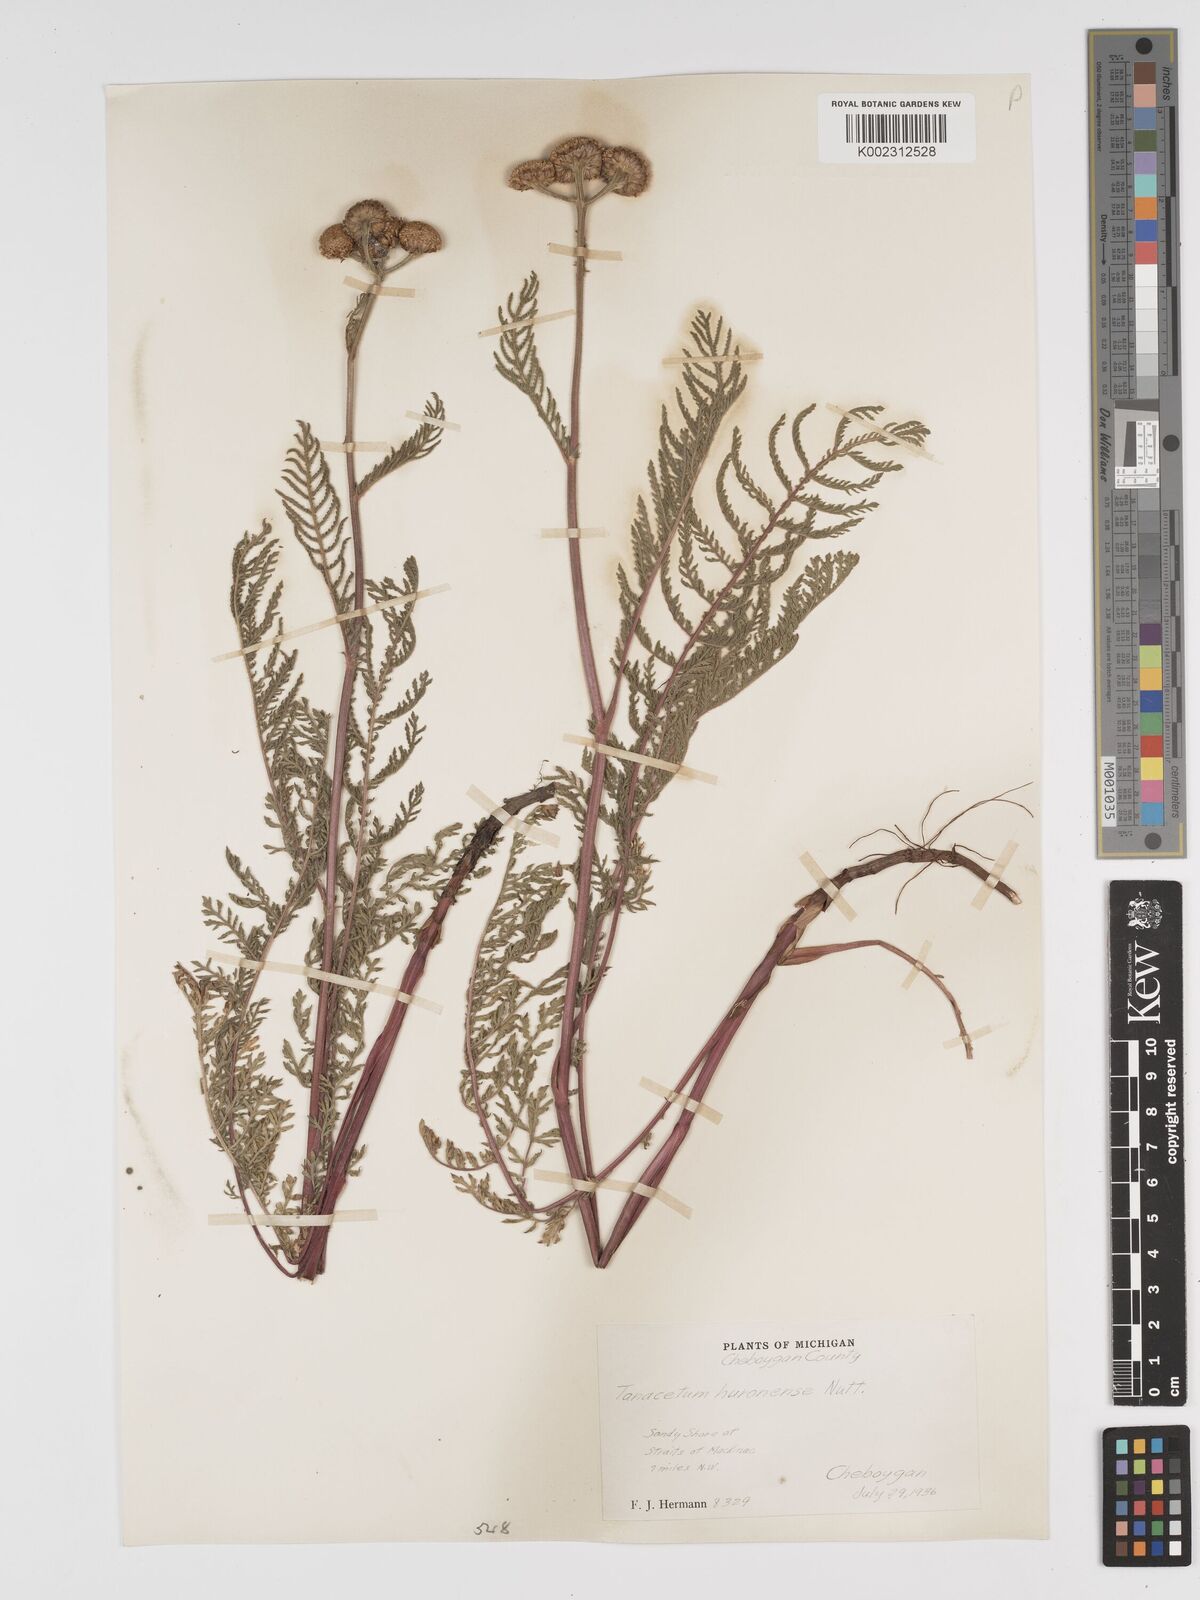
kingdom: Plantae
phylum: Tracheophyta
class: Magnoliopsida
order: Asterales
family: Asteraceae
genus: Tanacetum
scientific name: Tanacetum bipinnatum
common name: Dwarf tansy
